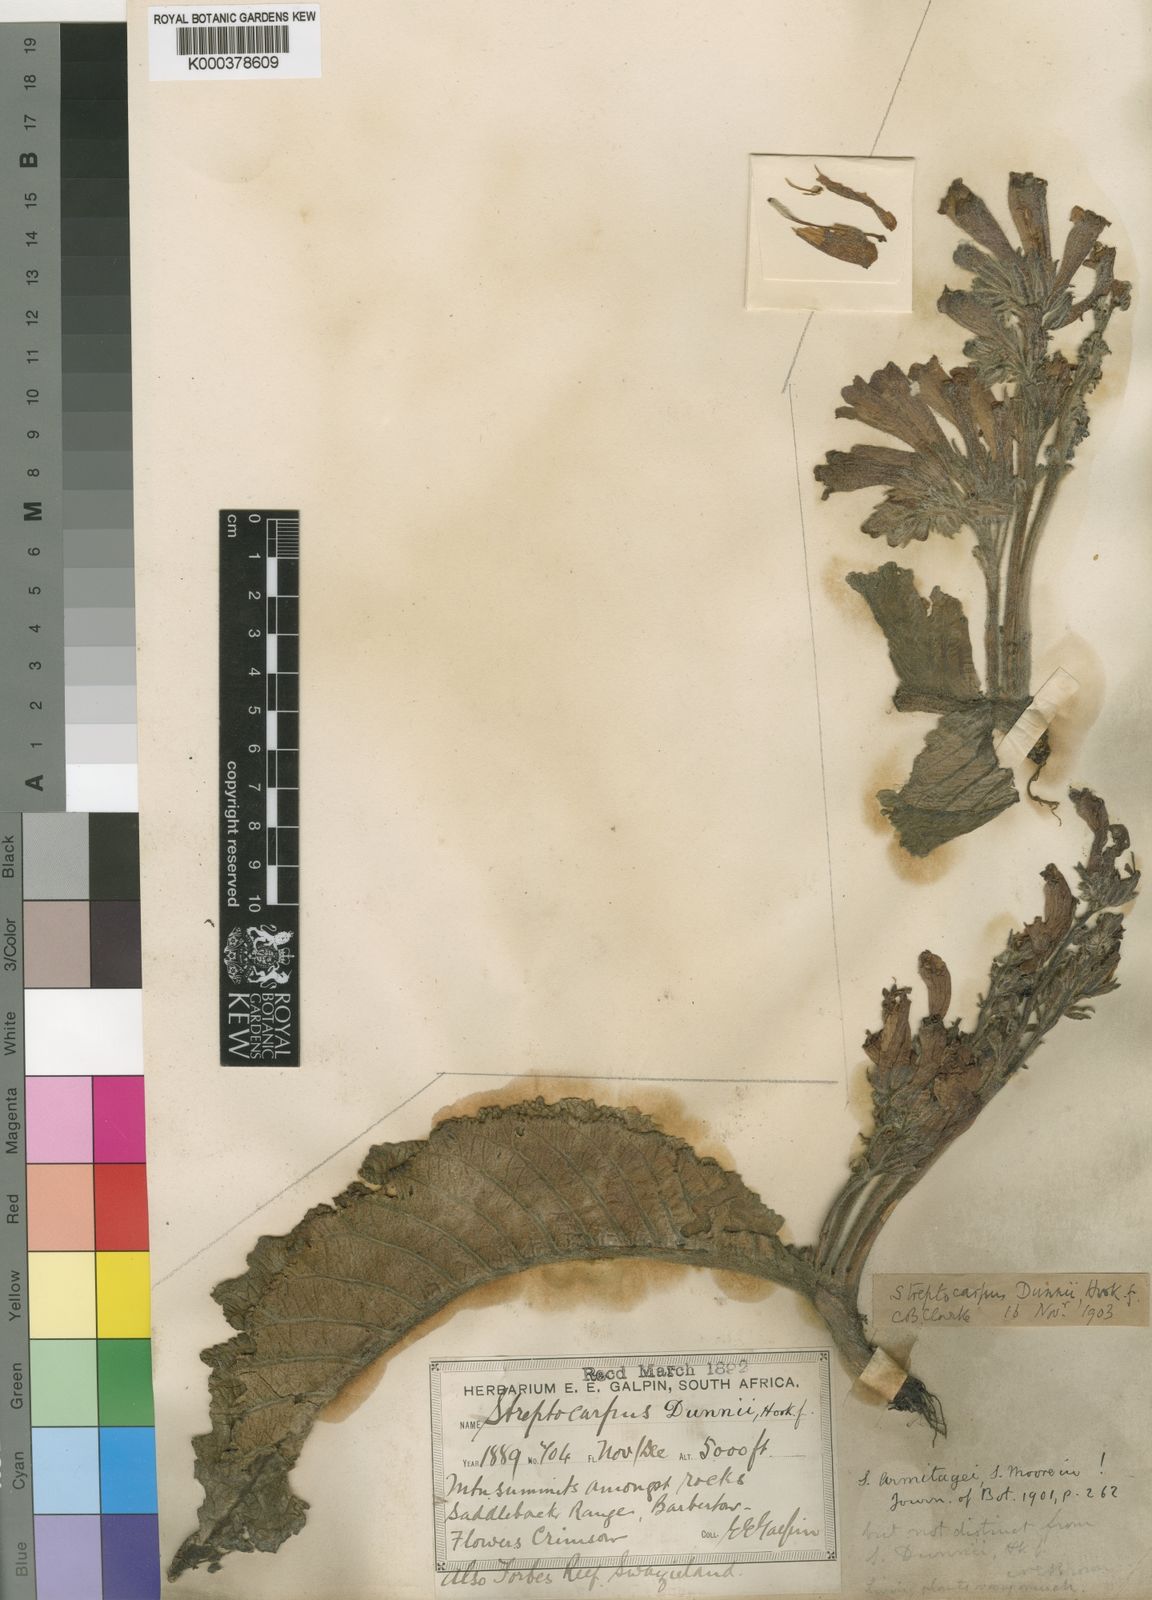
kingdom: Plantae
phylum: Tracheophyta
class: Magnoliopsida
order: Lamiales
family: Gesneriaceae
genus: Streptocarpus
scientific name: Streptocarpus
